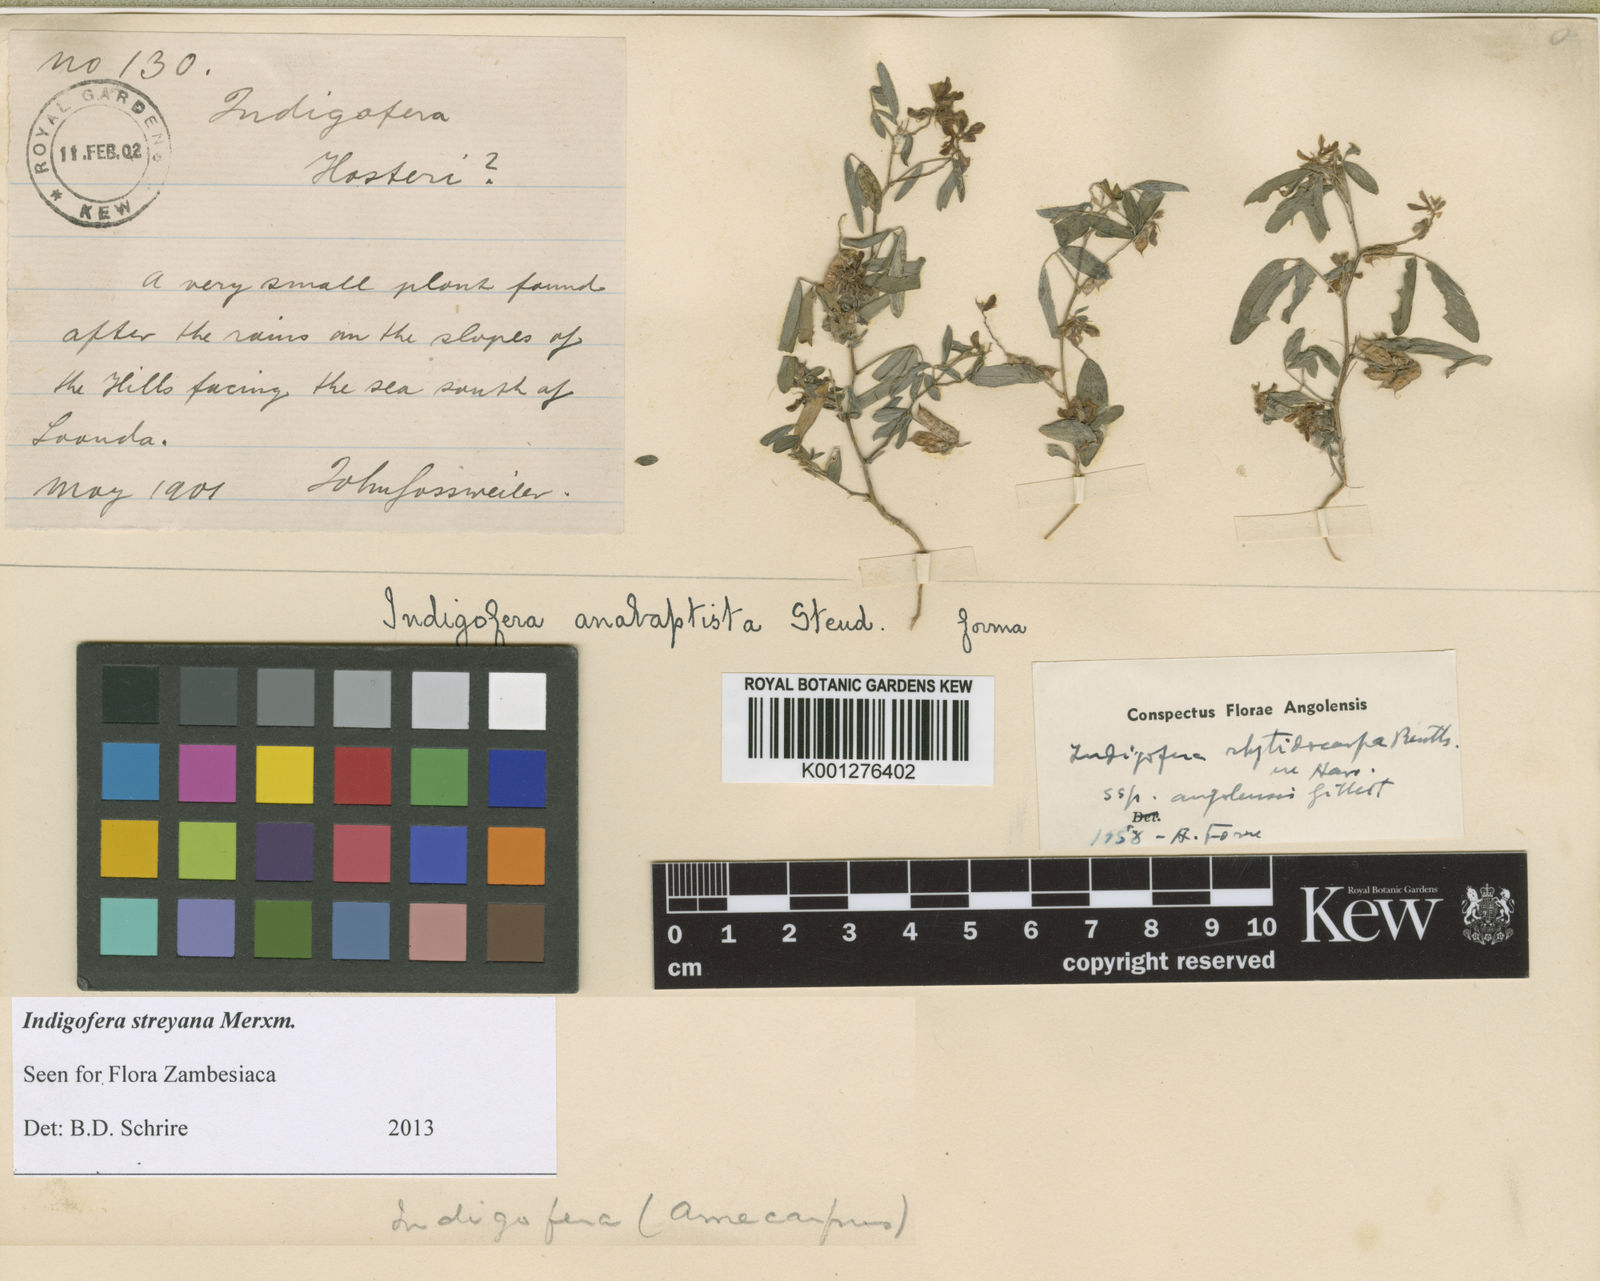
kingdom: Plantae
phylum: Tracheophyta
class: Magnoliopsida
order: Fabales
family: Fabaceae
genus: Indigofera
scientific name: Indigofera streyana
